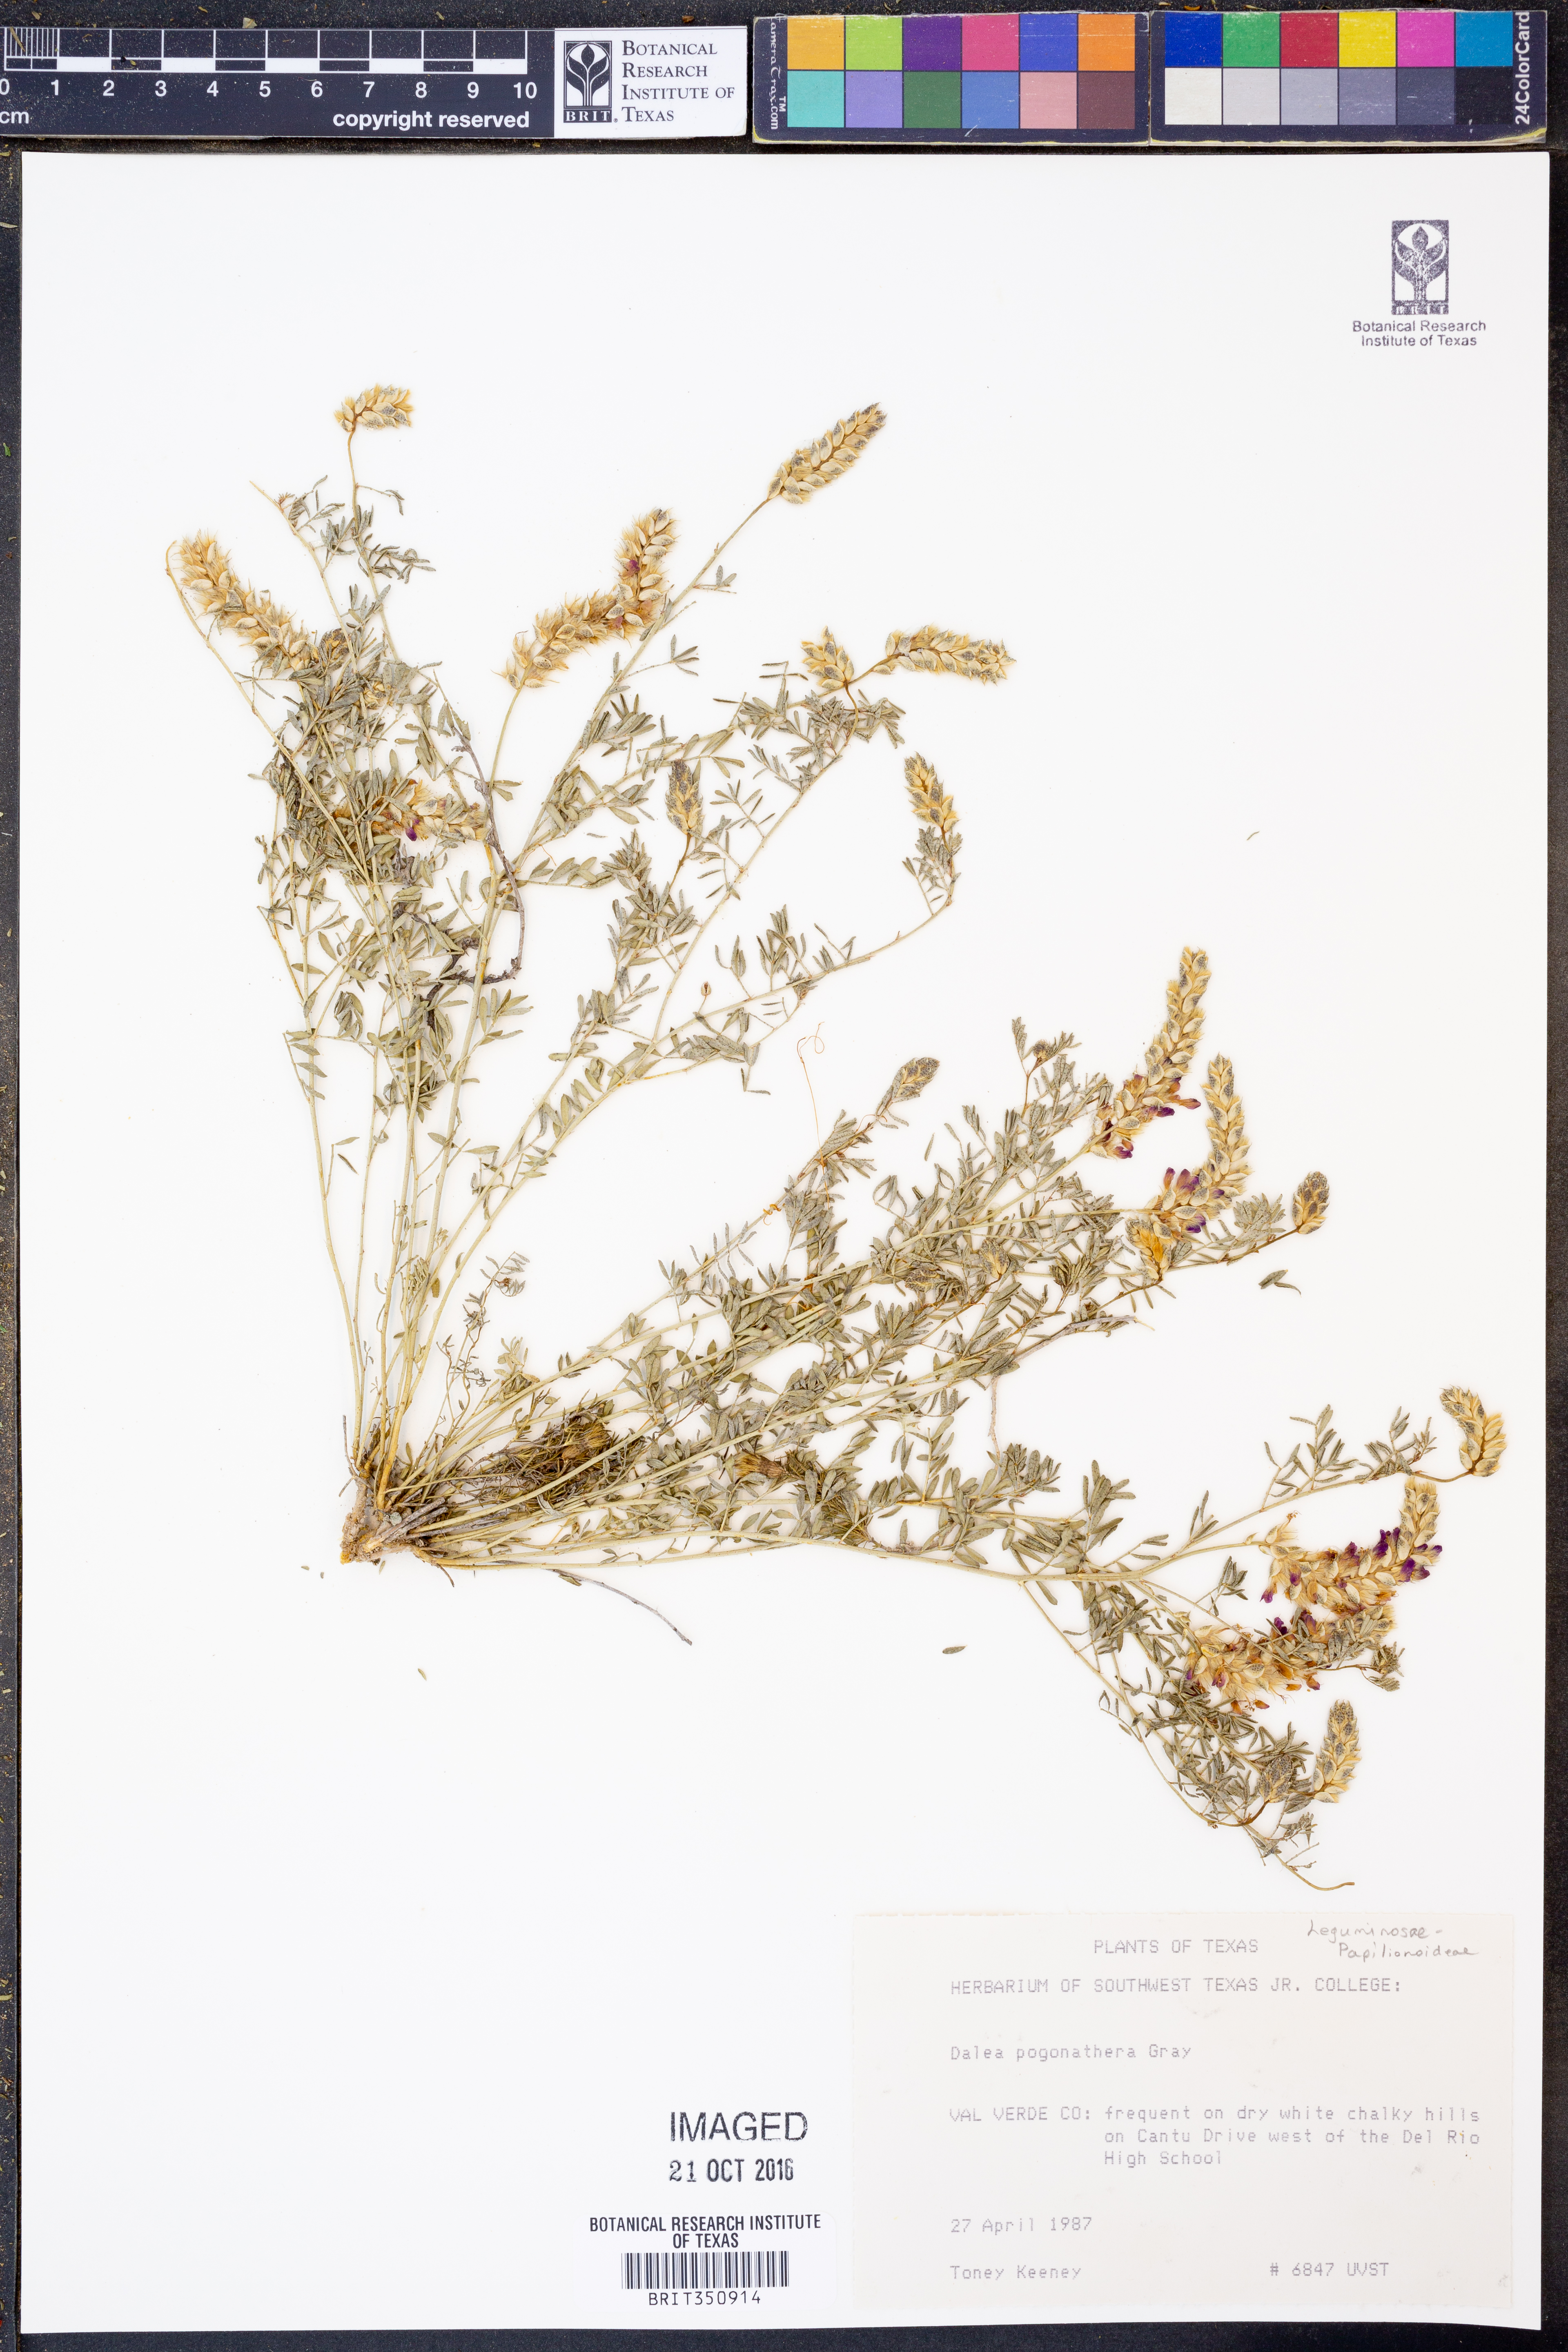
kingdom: Plantae
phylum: Tracheophyta
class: Magnoliopsida
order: Fabales
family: Fabaceae
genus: Dalea
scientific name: Dalea pogonathera
